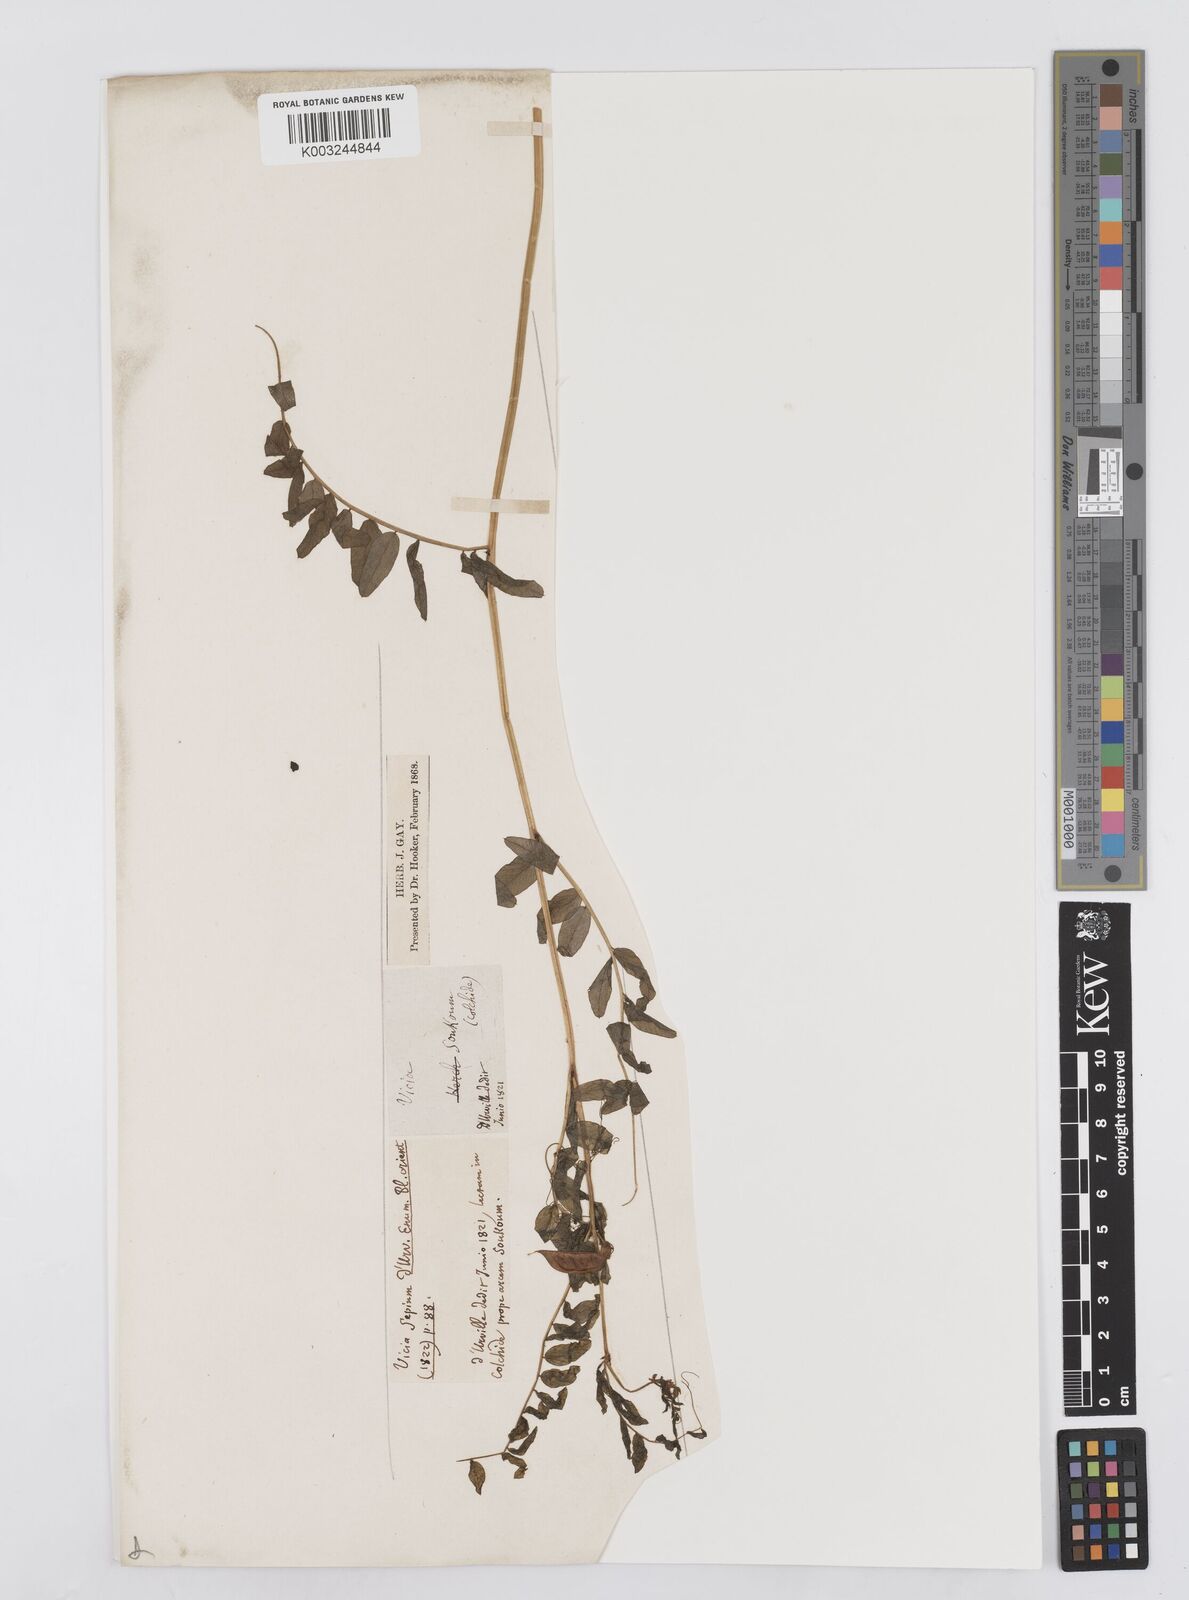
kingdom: Plantae
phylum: Tracheophyta
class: Magnoliopsida
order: Fabales
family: Fabaceae
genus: Vicia
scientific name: Vicia sepium
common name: Bush vetch
